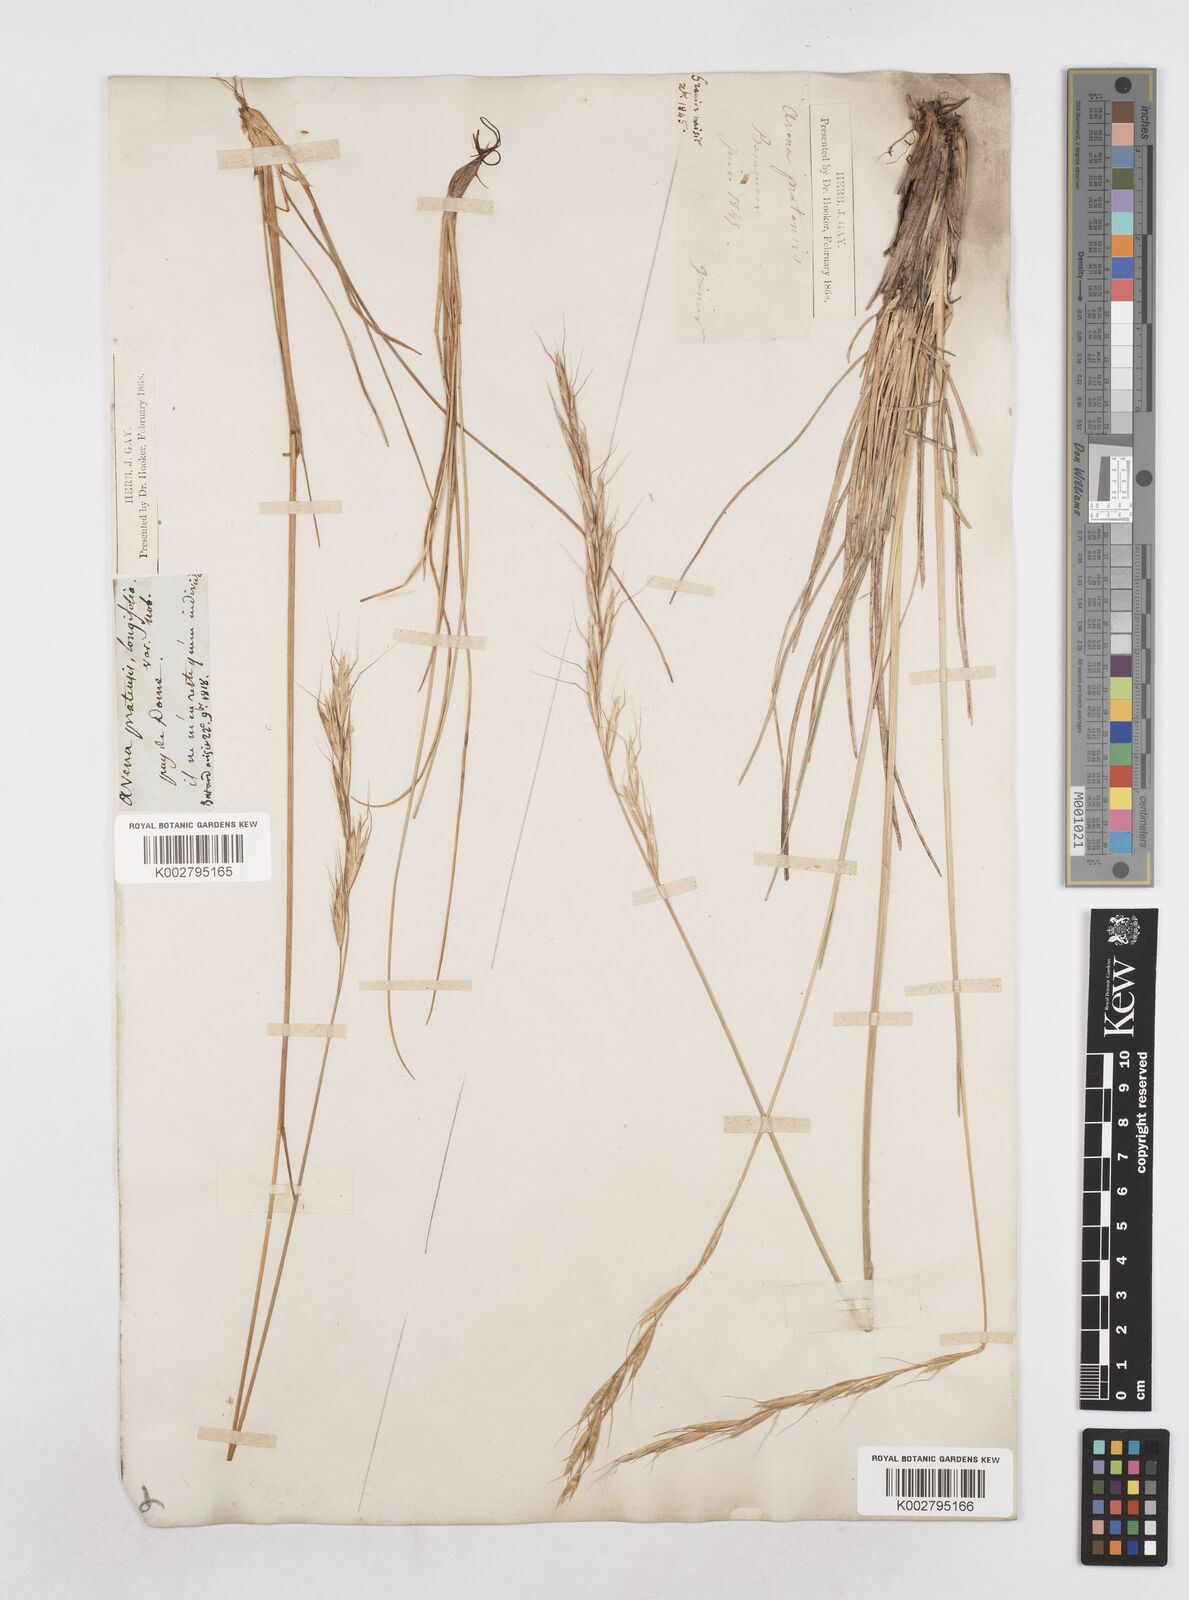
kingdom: Plantae
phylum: Tracheophyta
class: Liliopsida
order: Poales
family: Poaceae
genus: Helictochloa
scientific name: Helictochloa pratensis
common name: Meadow oat grass
